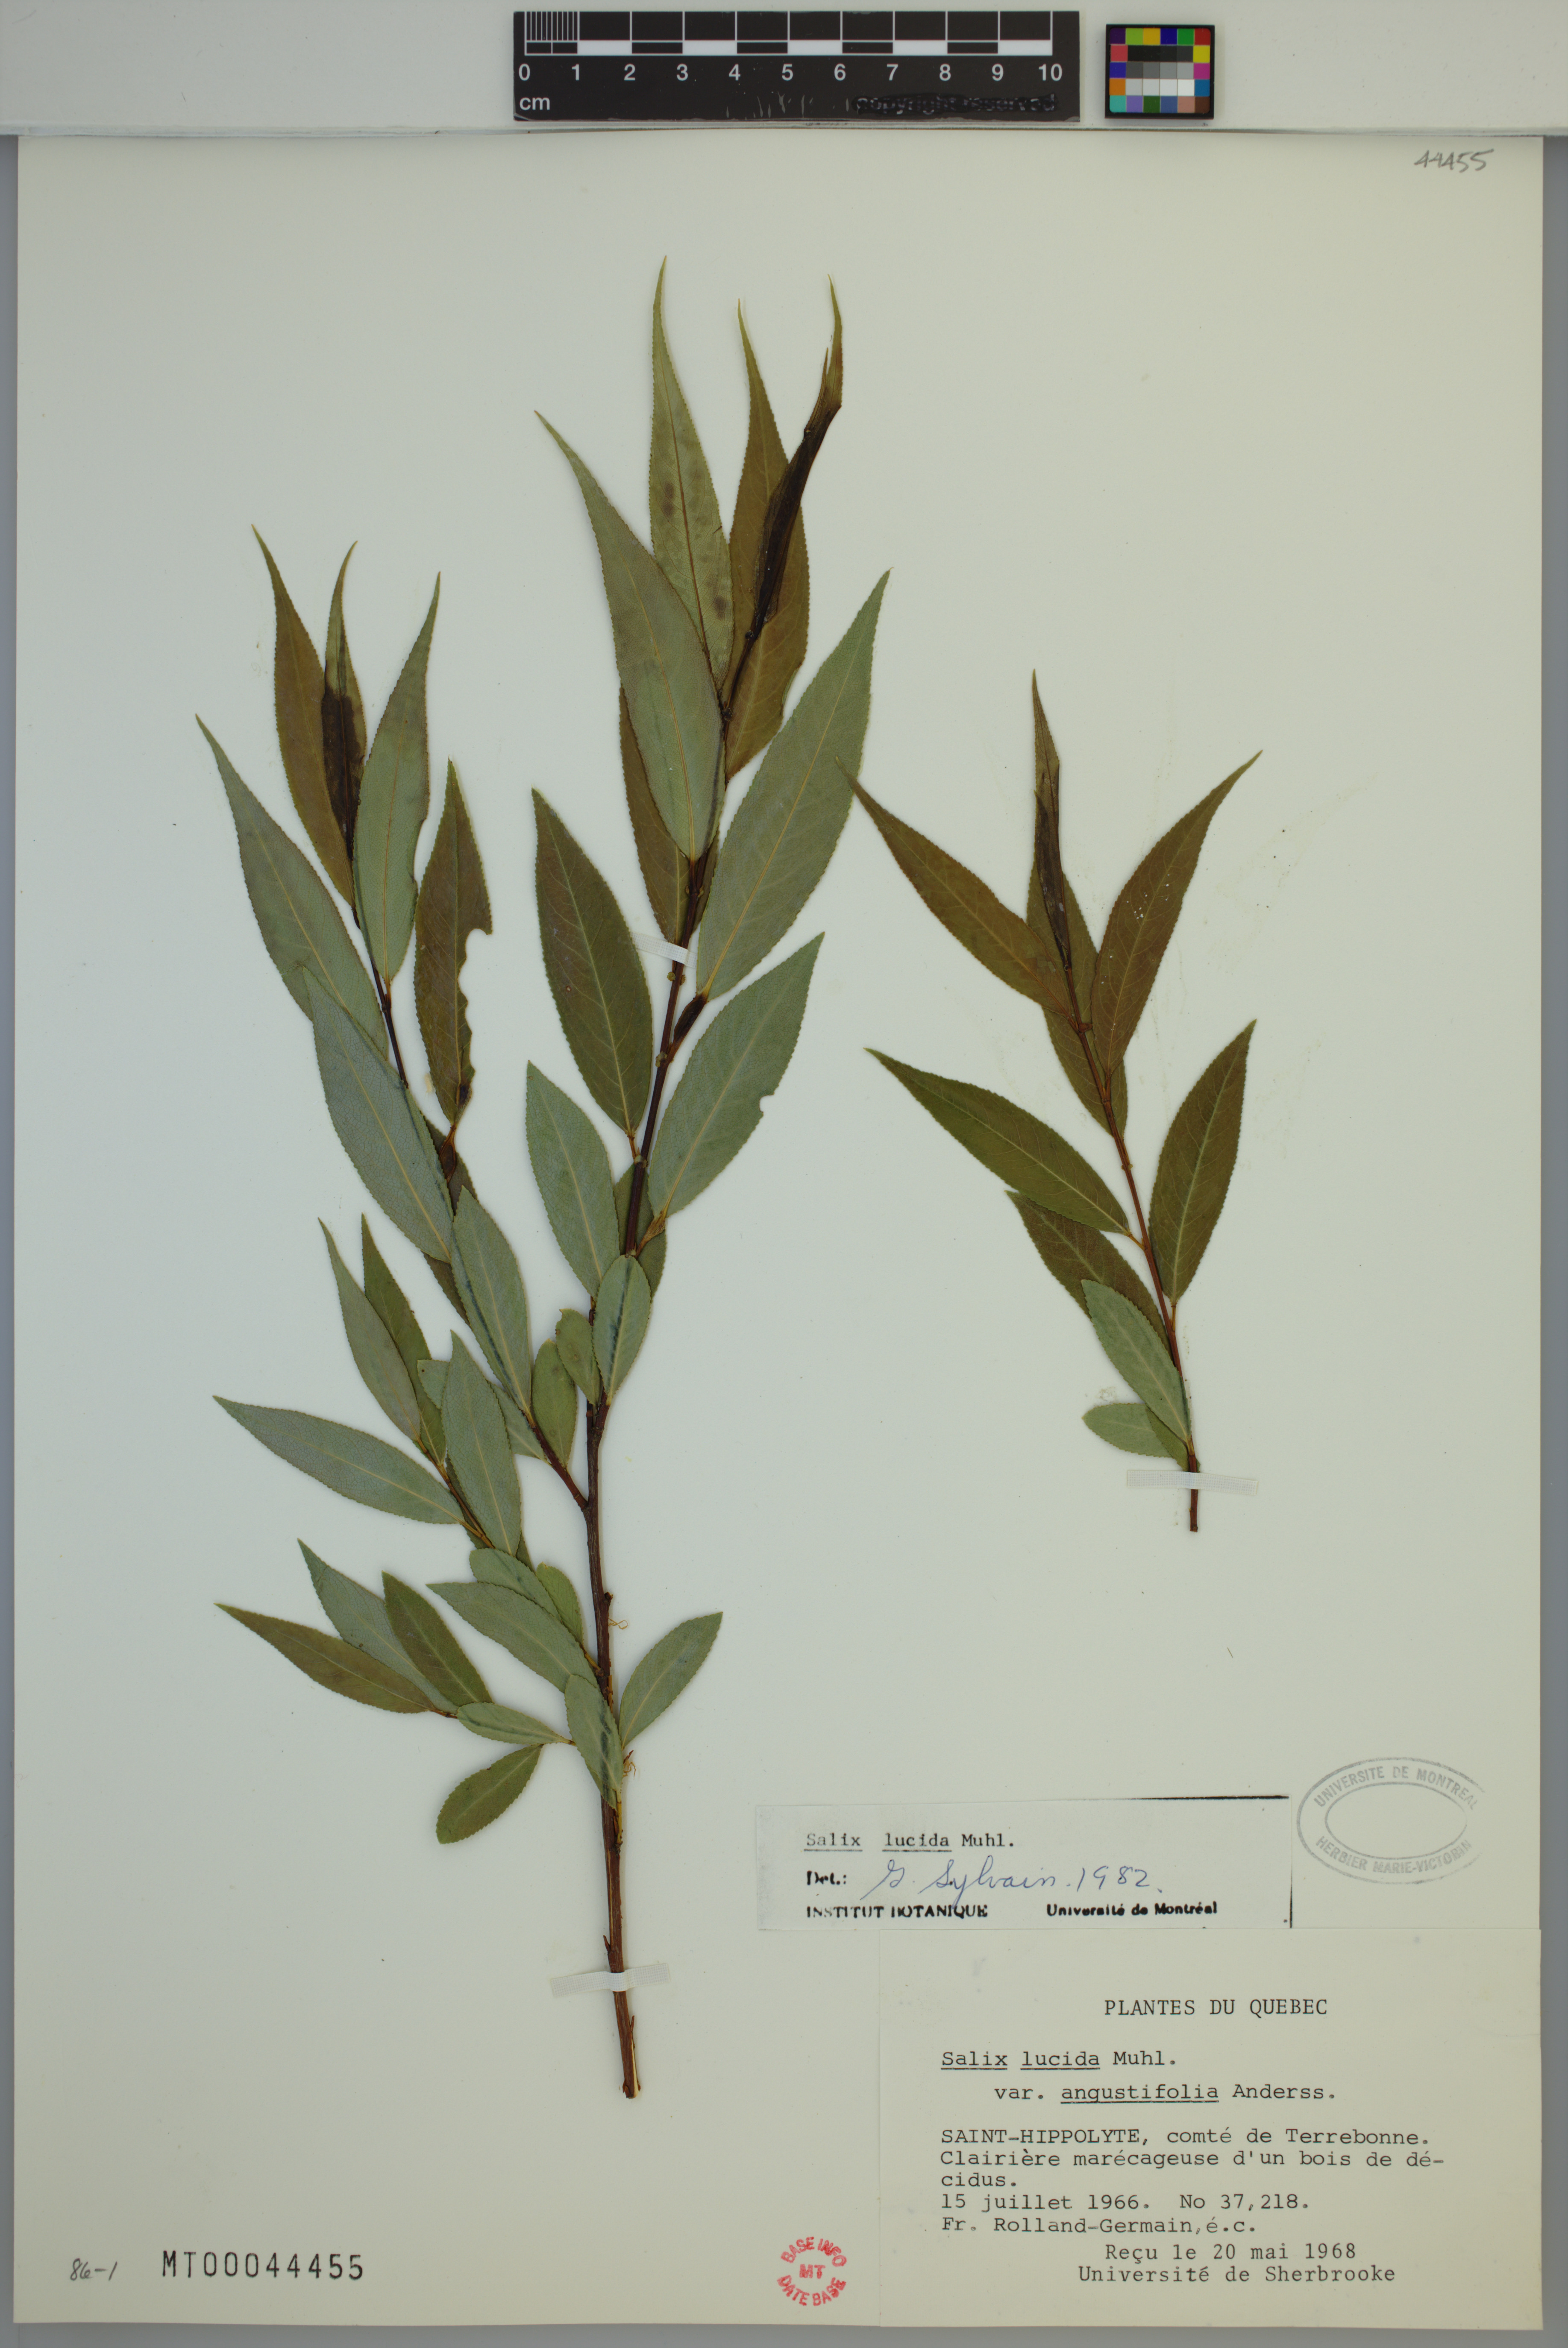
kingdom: Plantae
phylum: Tracheophyta
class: Magnoliopsida
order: Malpighiales
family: Salicaceae
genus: Salix
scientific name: Salix lucida
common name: Shining willow
